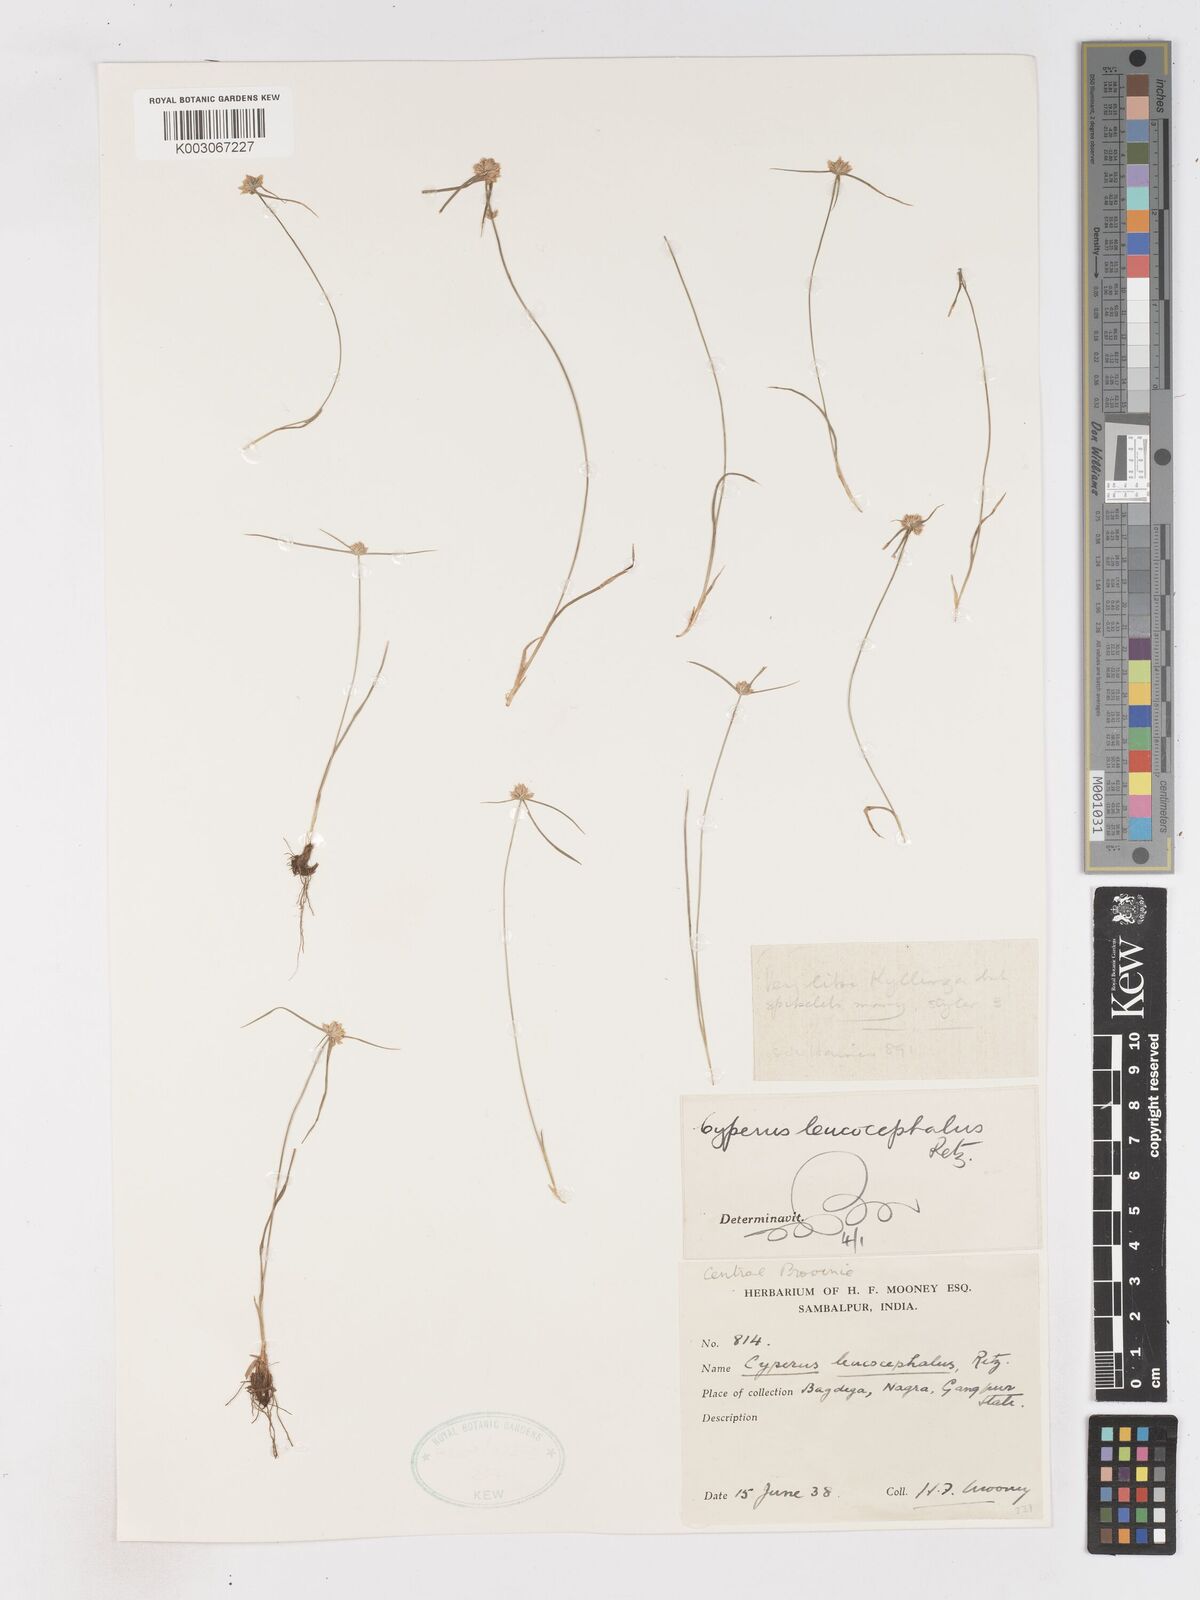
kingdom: Plantae
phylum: Tracheophyta
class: Liliopsida
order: Poales
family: Cyperaceae
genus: Cyperus
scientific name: Cyperus leucocephalus
